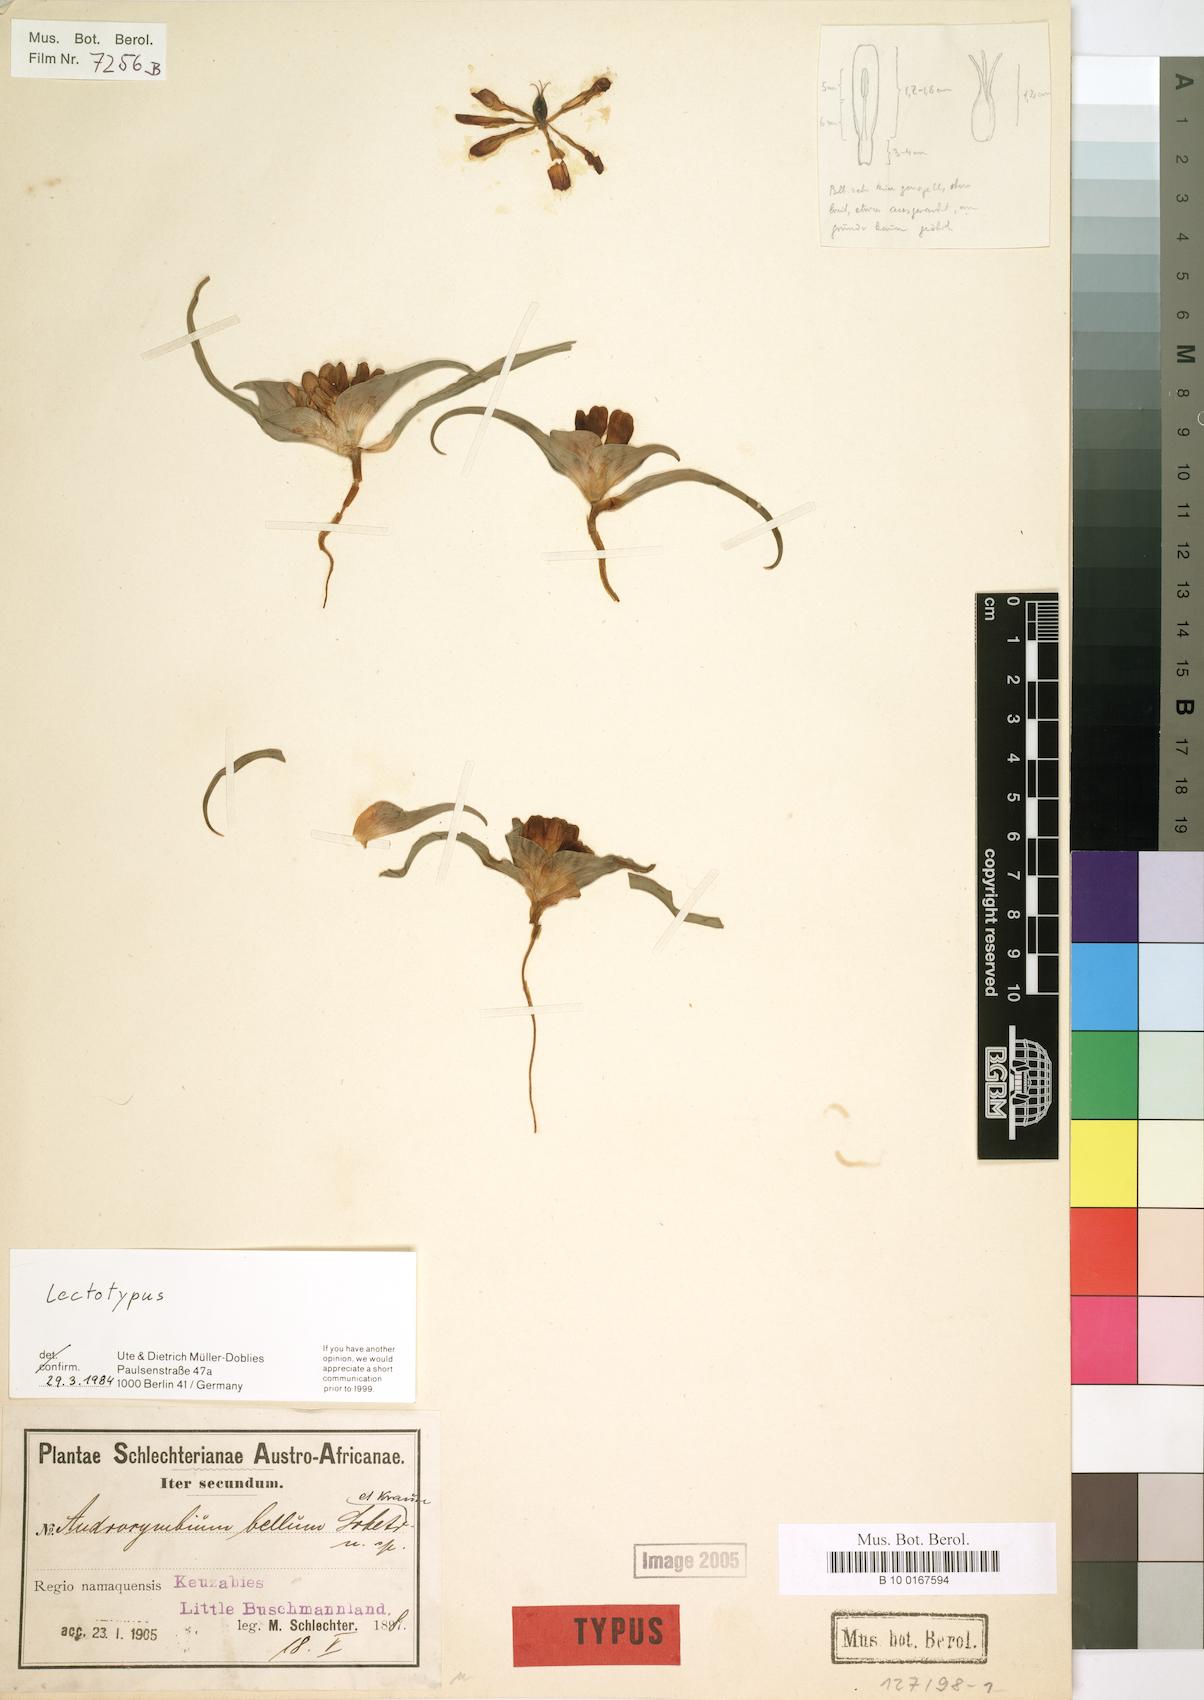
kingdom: Plantae
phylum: Tracheophyta
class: Liliopsida
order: Liliales
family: Colchicaceae
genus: Colchicum
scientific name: Colchicum bellum
